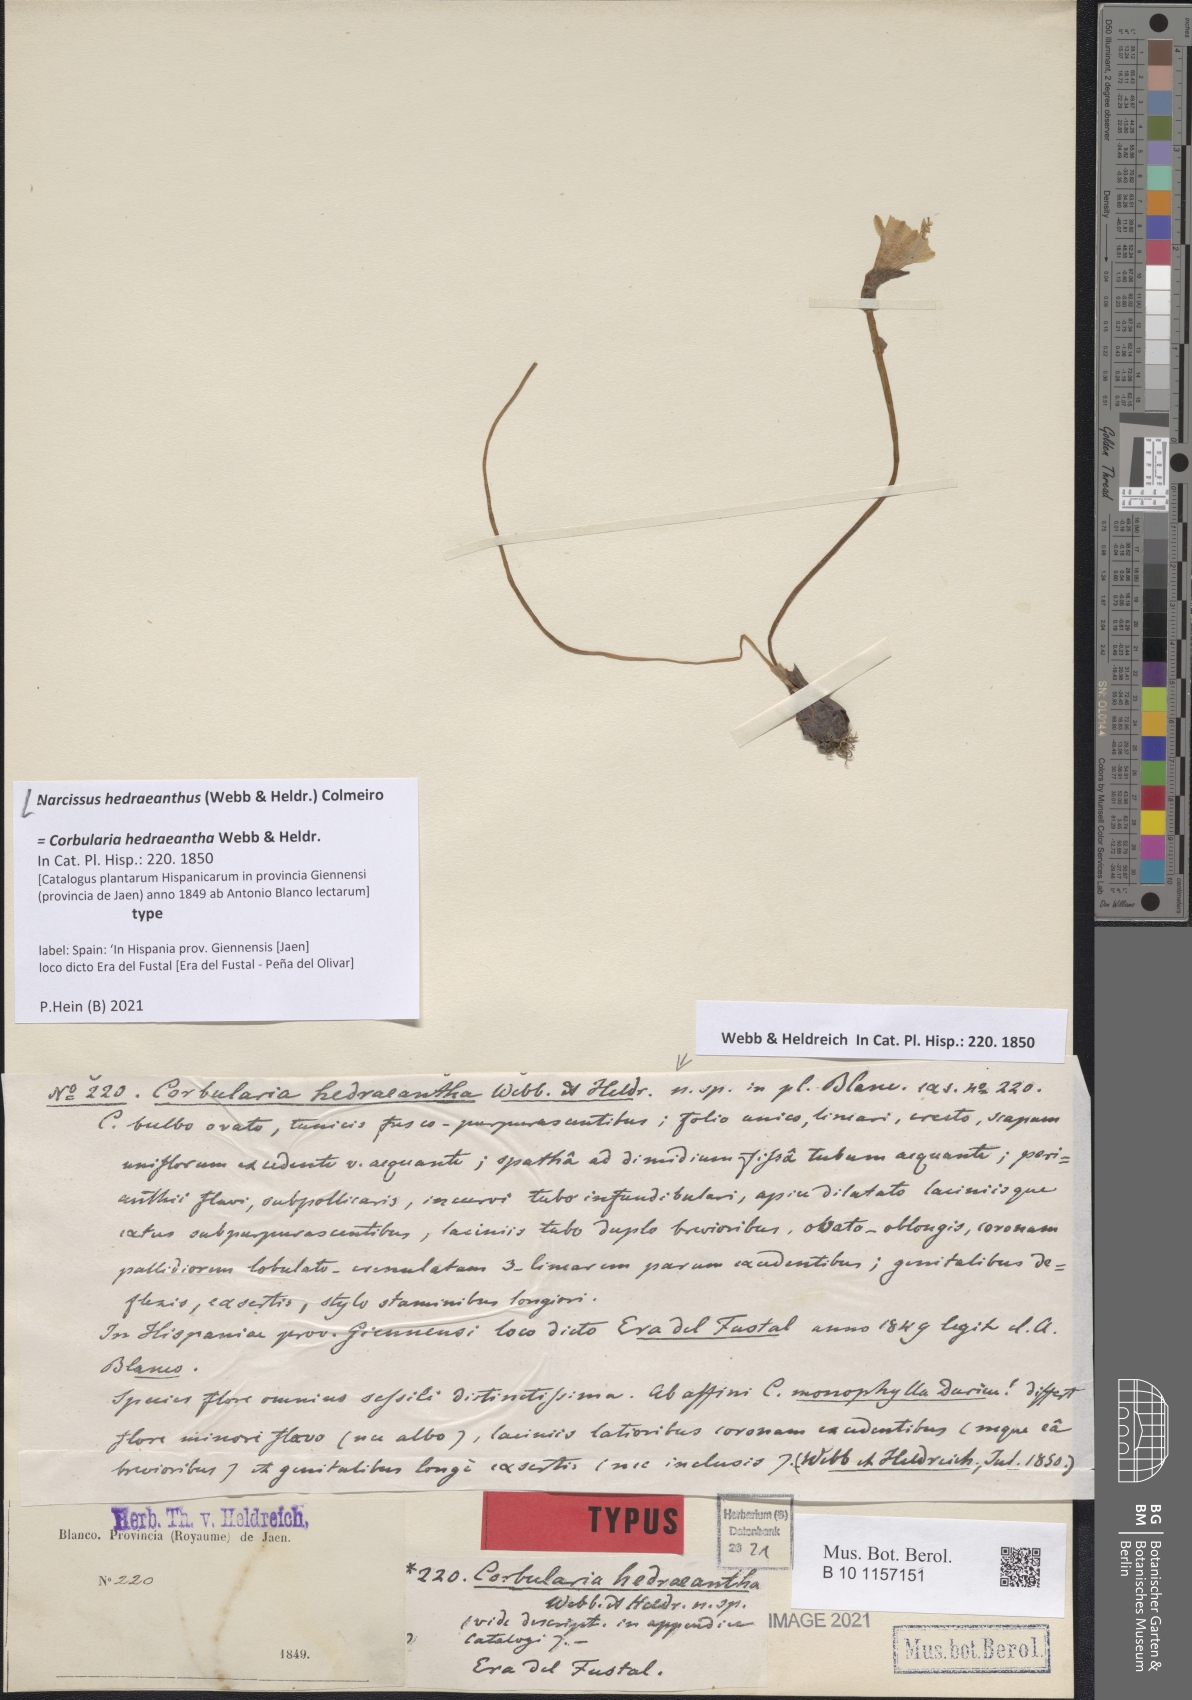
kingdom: Plantae
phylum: Tracheophyta
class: Liliopsida
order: Asparagales
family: Amaryllidaceae
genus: Narcissus
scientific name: Narcissus hedraeanthus
